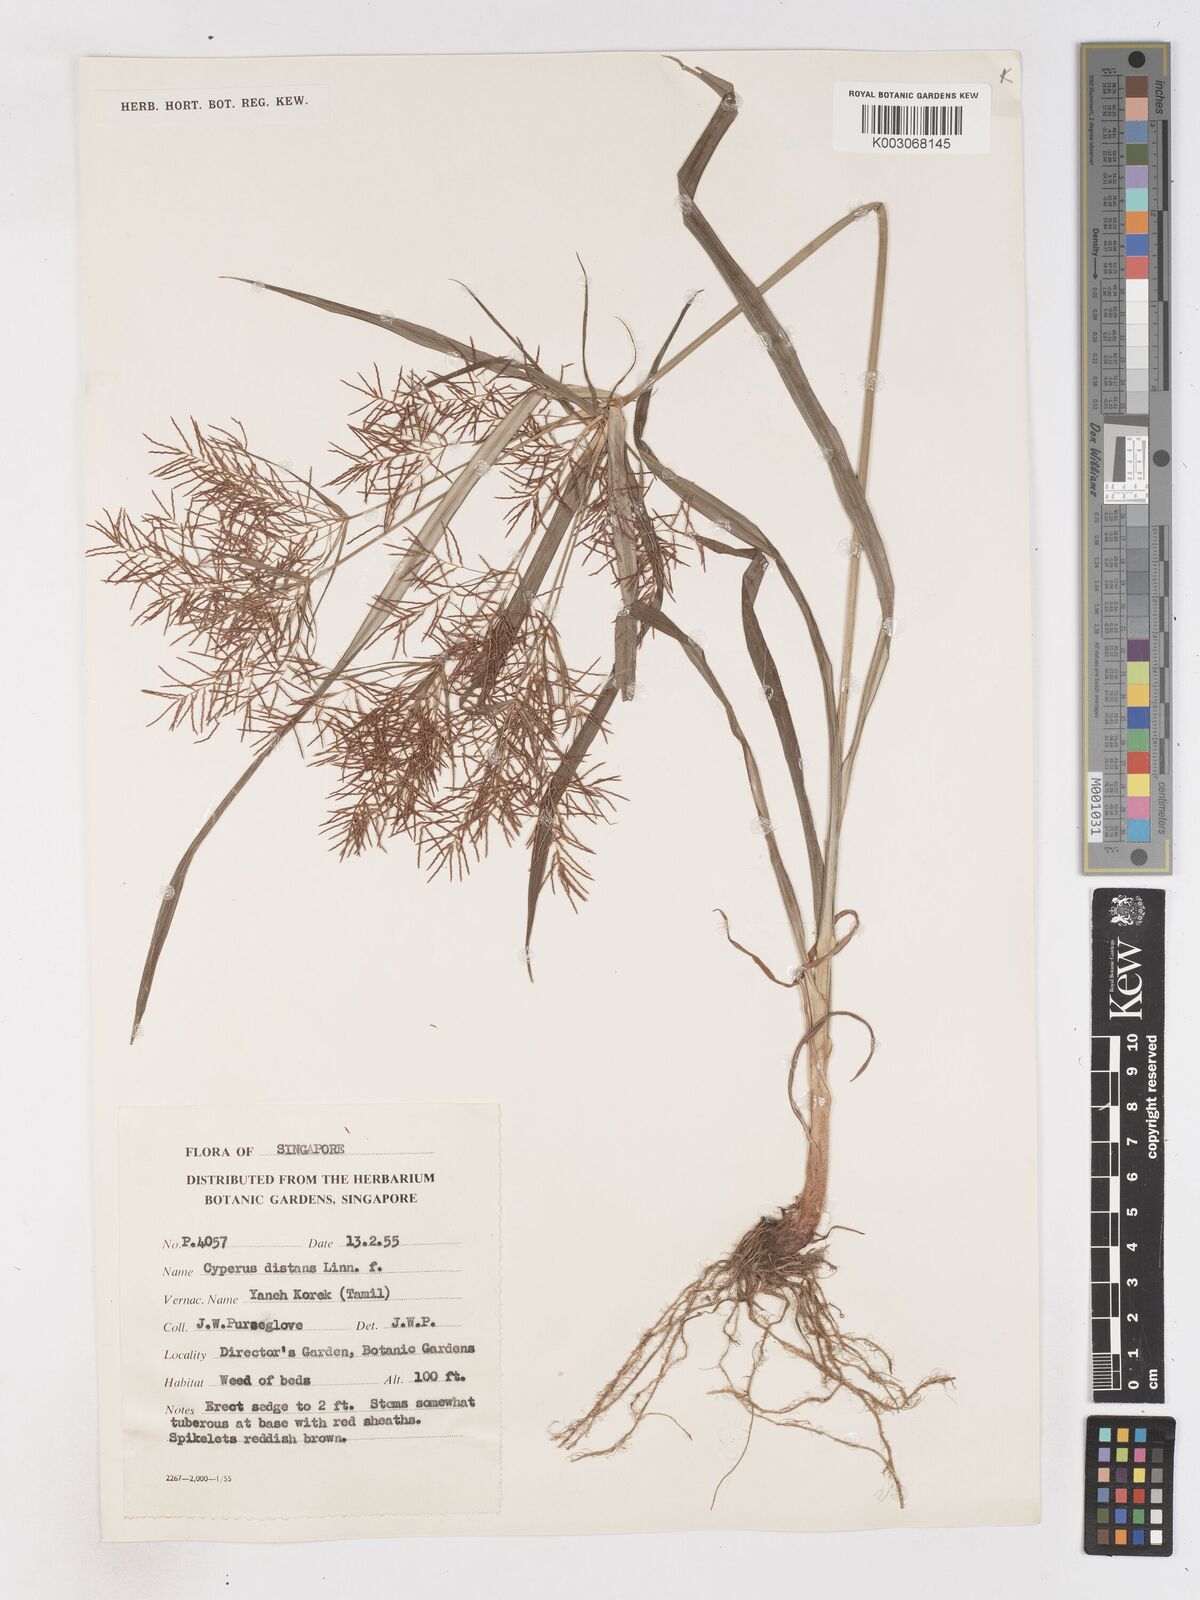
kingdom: Plantae
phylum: Tracheophyta
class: Liliopsida
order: Poales
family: Cyperaceae
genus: Cyperus
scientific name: Cyperus distans
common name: Slender cyperus
